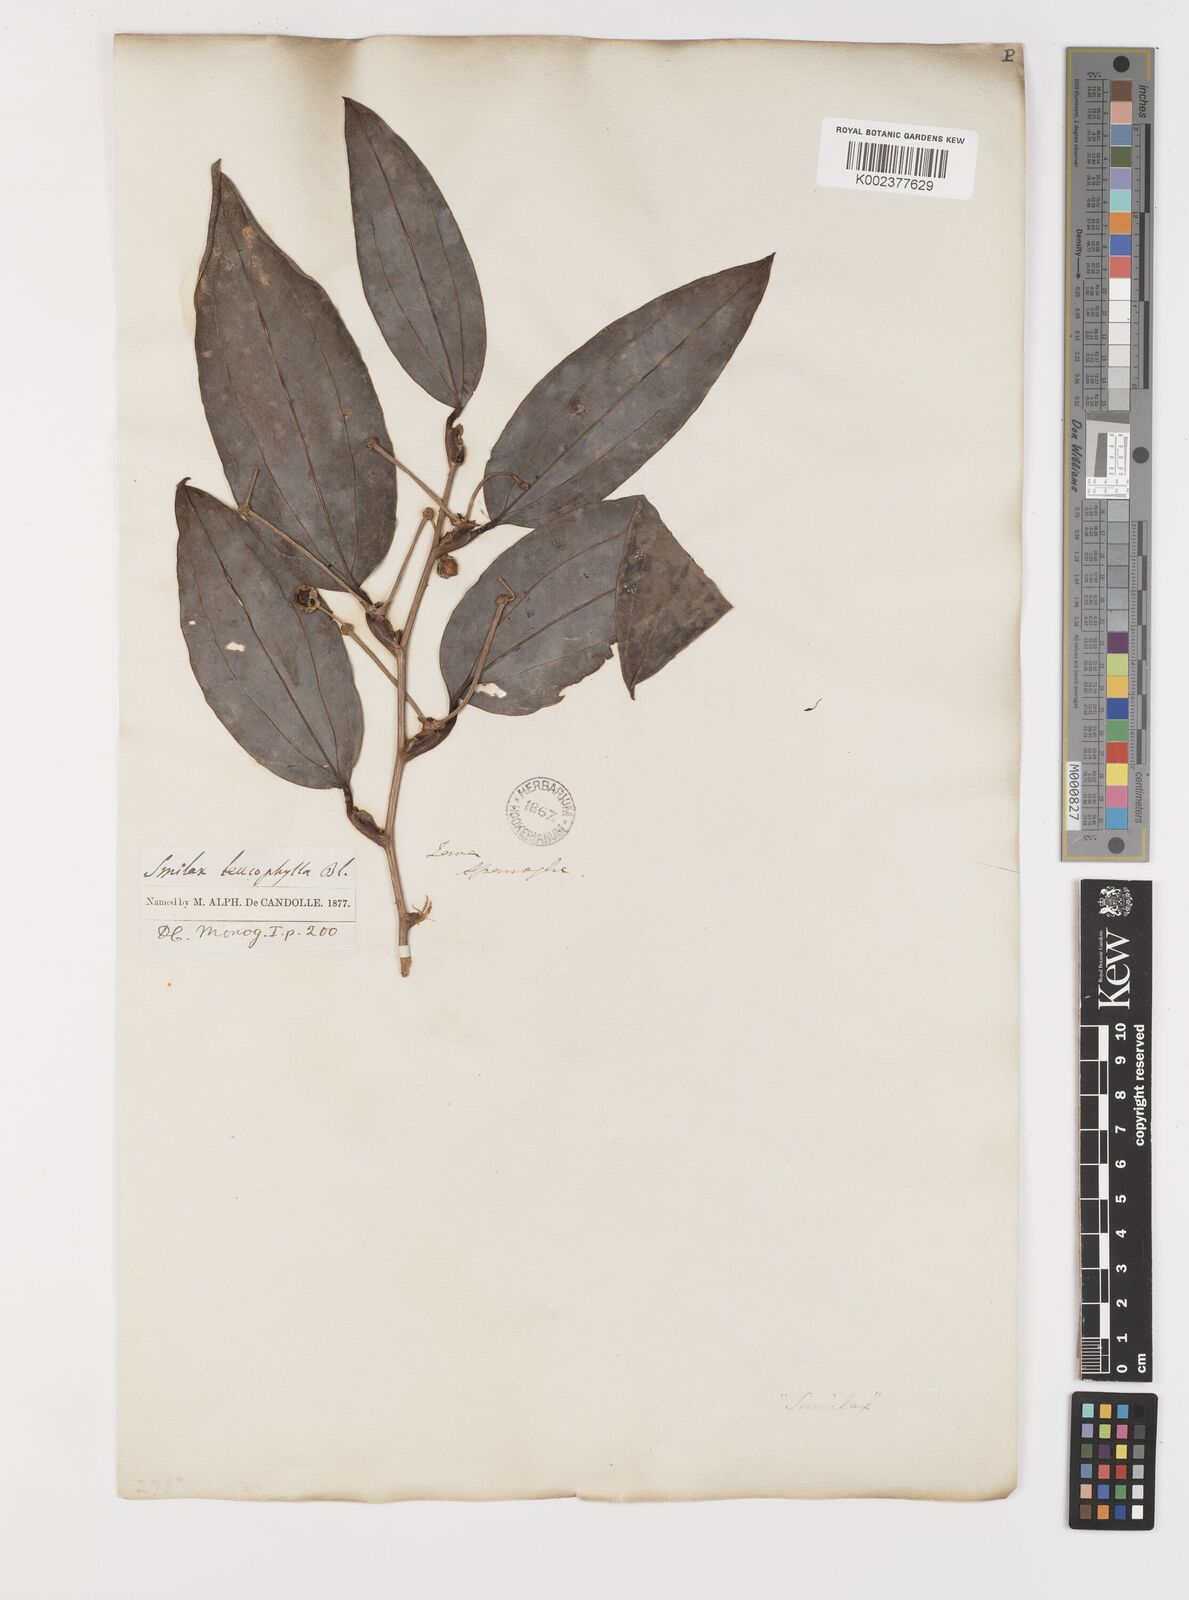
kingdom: Plantae
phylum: Tracheophyta
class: Liliopsida
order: Liliales
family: Smilacaceae
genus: Smilax
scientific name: Smilax leucophylla
